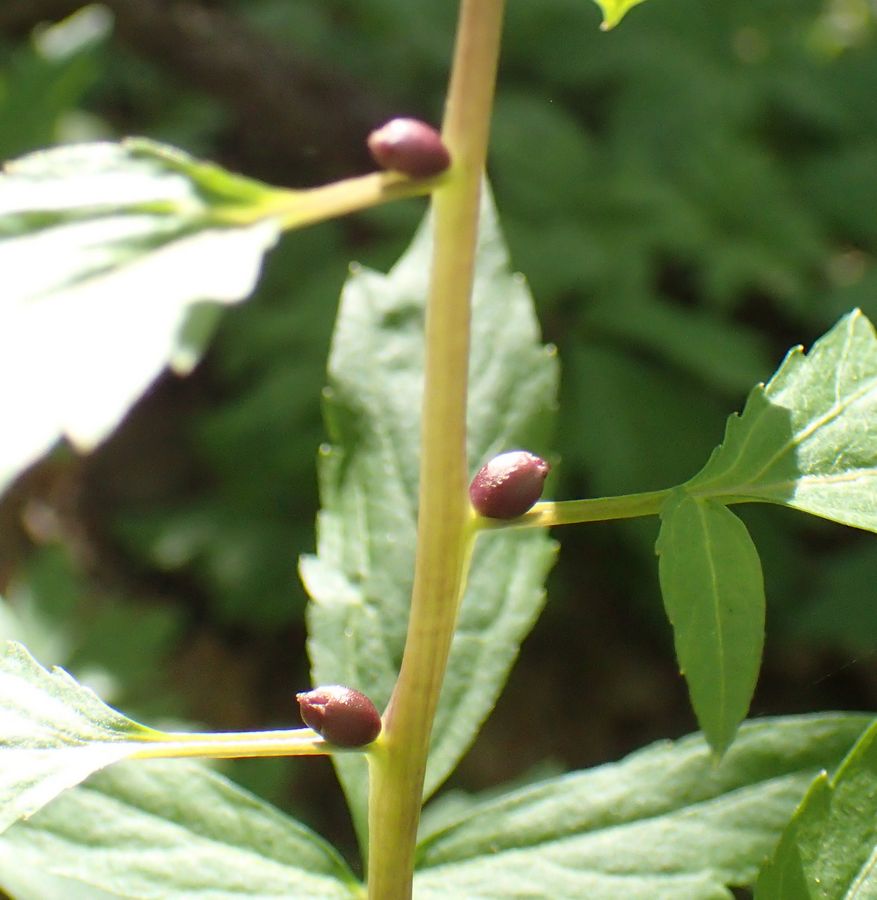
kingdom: Plantae
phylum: Tracheophyta
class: Magnoliopsida
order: Brassicales
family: Brassicaceae
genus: Cardamine
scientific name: Cardamine bulbifera
